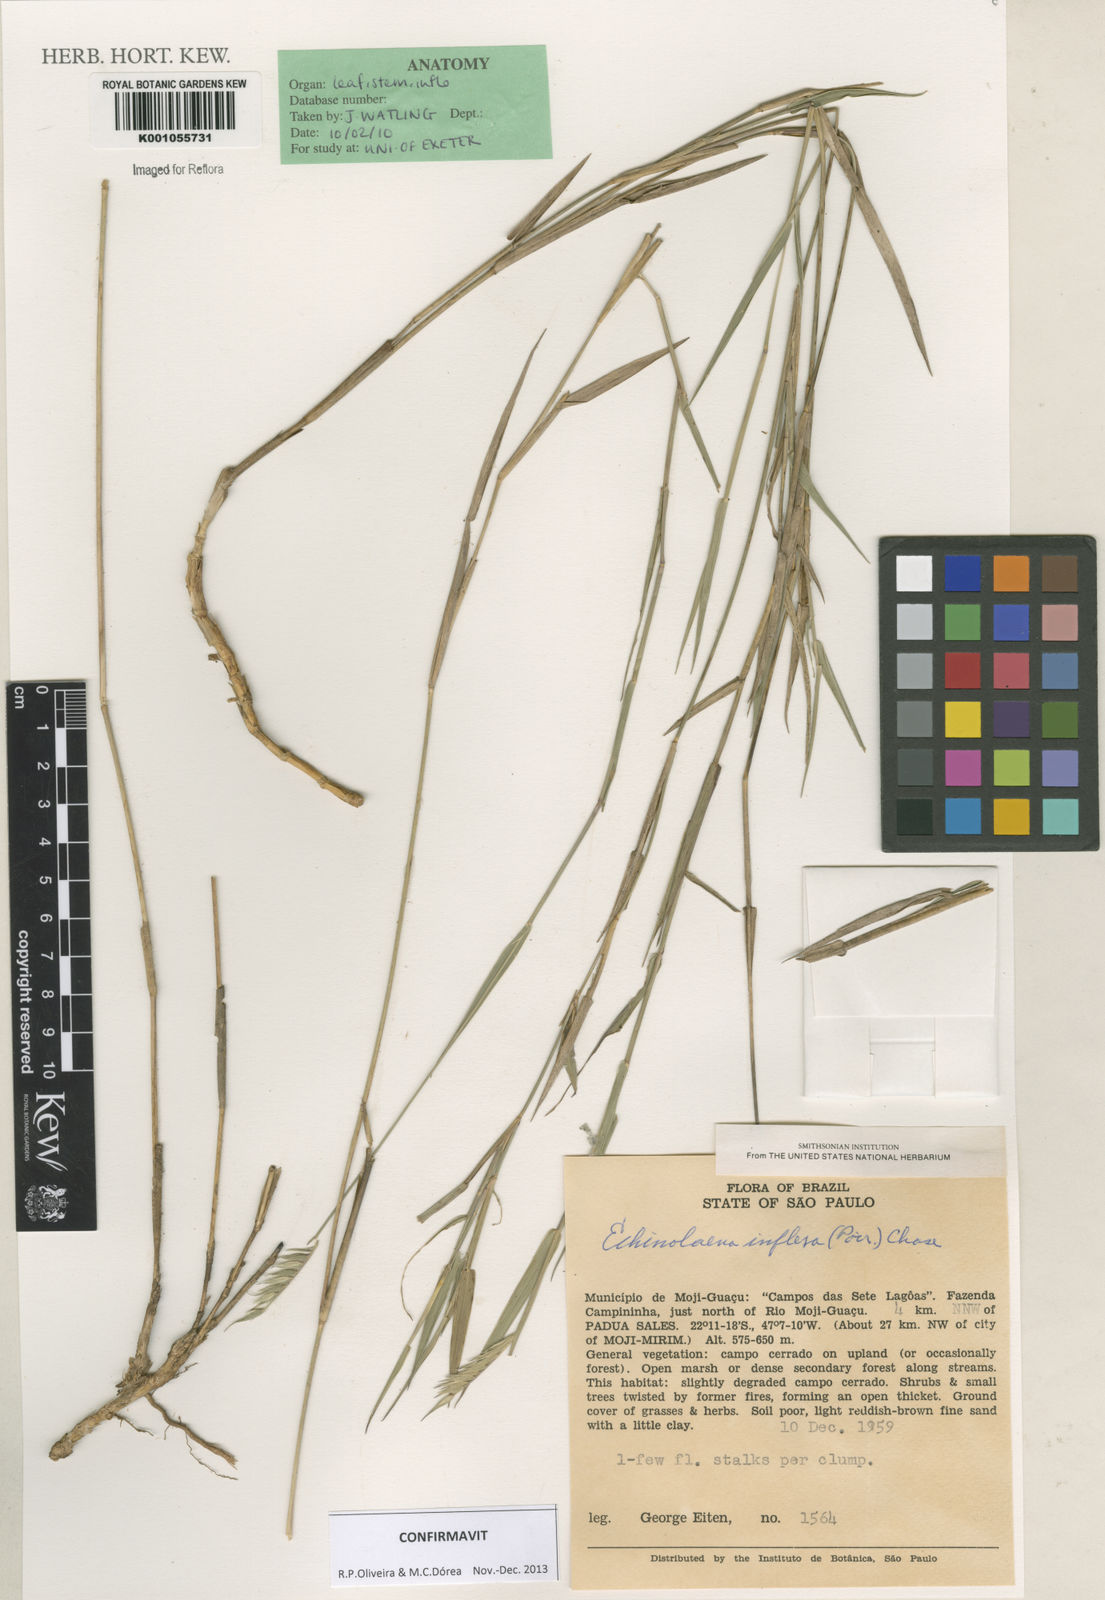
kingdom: Plantae
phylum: Tracheophyta
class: Liliopsida
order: Poales
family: Poaceae
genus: Echinolaena
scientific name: Echinolaena inflexa
